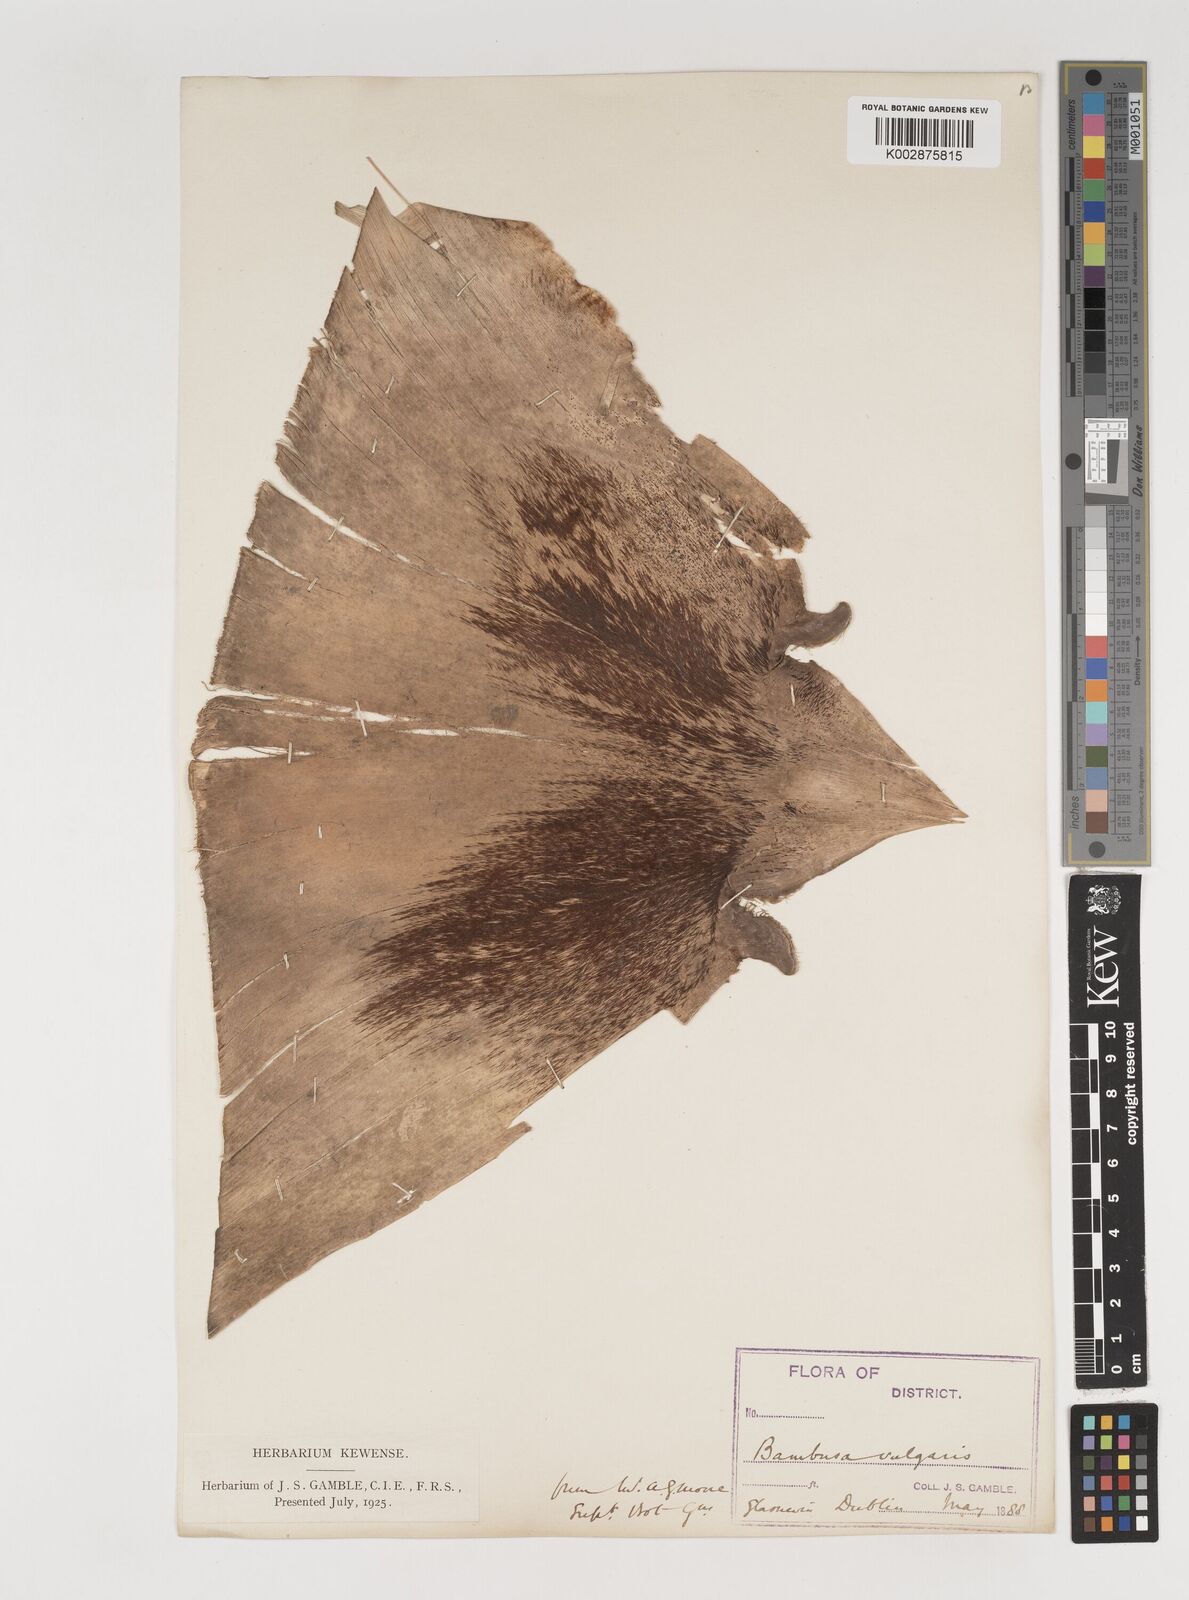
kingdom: Plantae
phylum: Tracheophyta
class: Liliopsida
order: Poales
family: Poaceae
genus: Bambusa
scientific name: Bambusa balcooa
